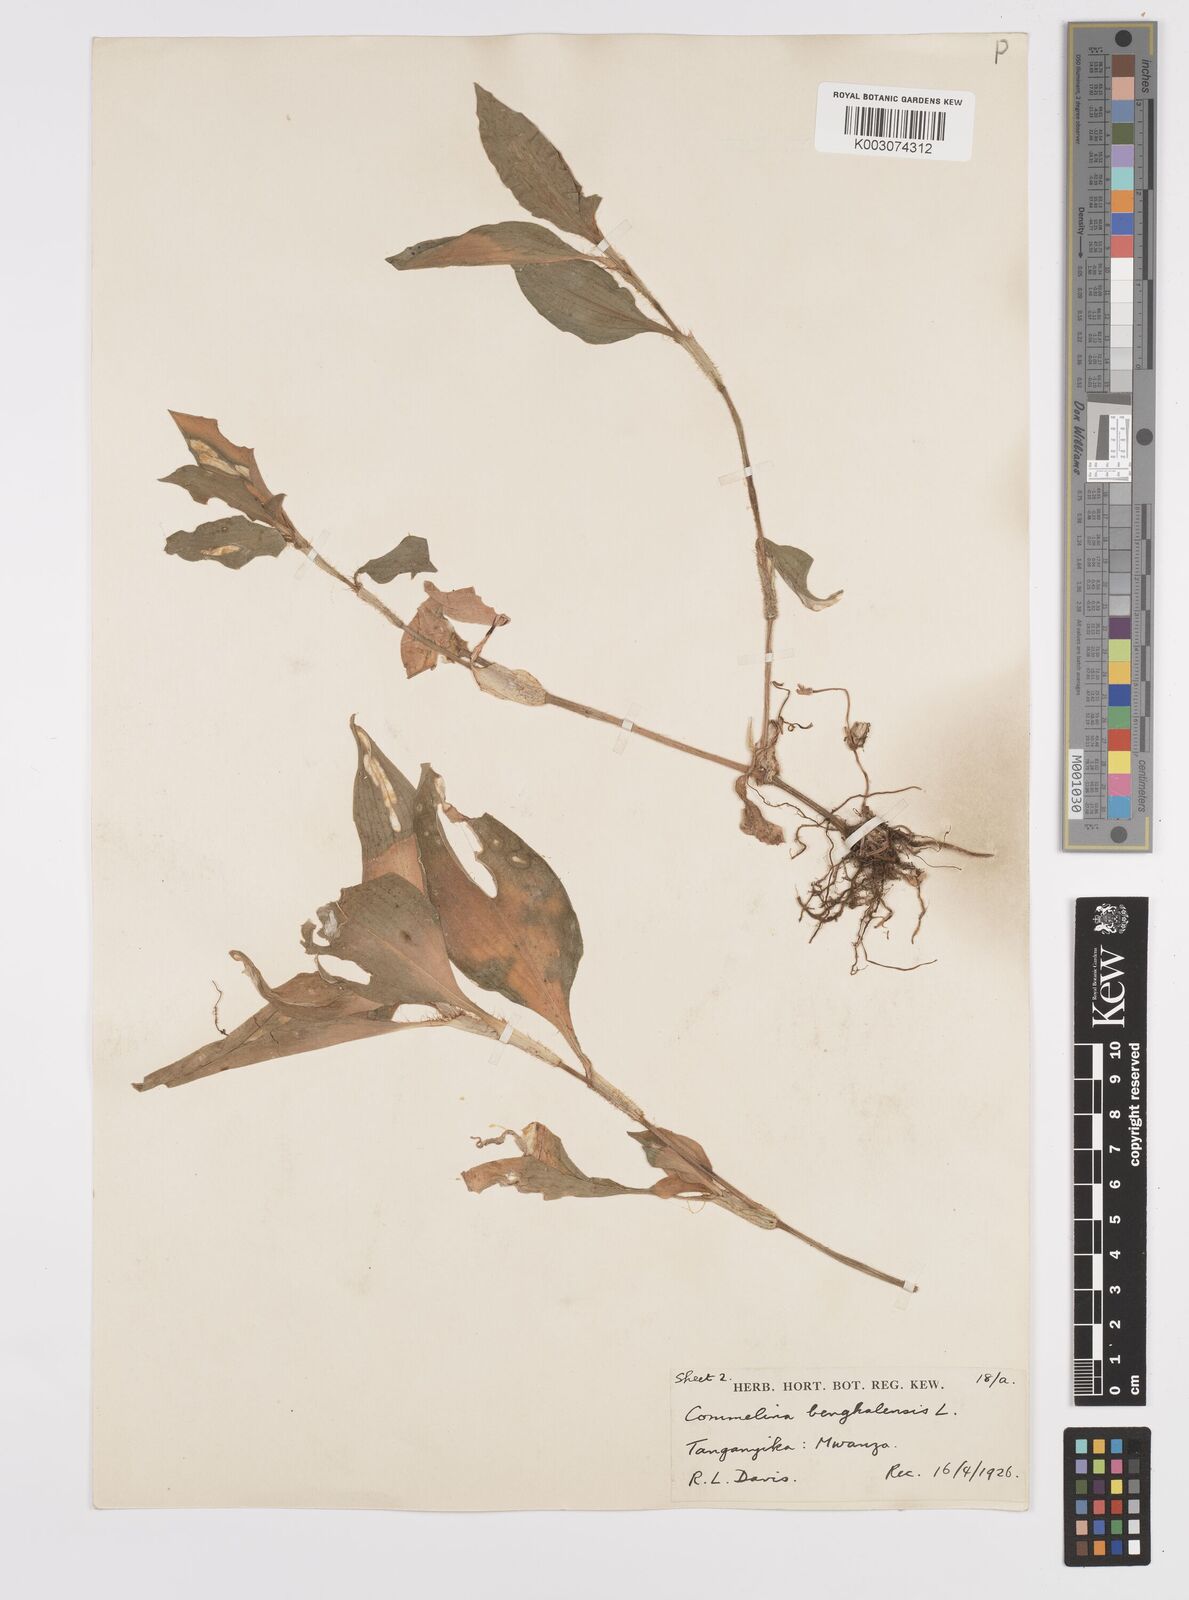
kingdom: Plantae
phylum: Tracheophyta
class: Liliopsida
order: Commelinales
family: Commelinaceae
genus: Commelina
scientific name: Commelina benghalensis
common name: Jio
